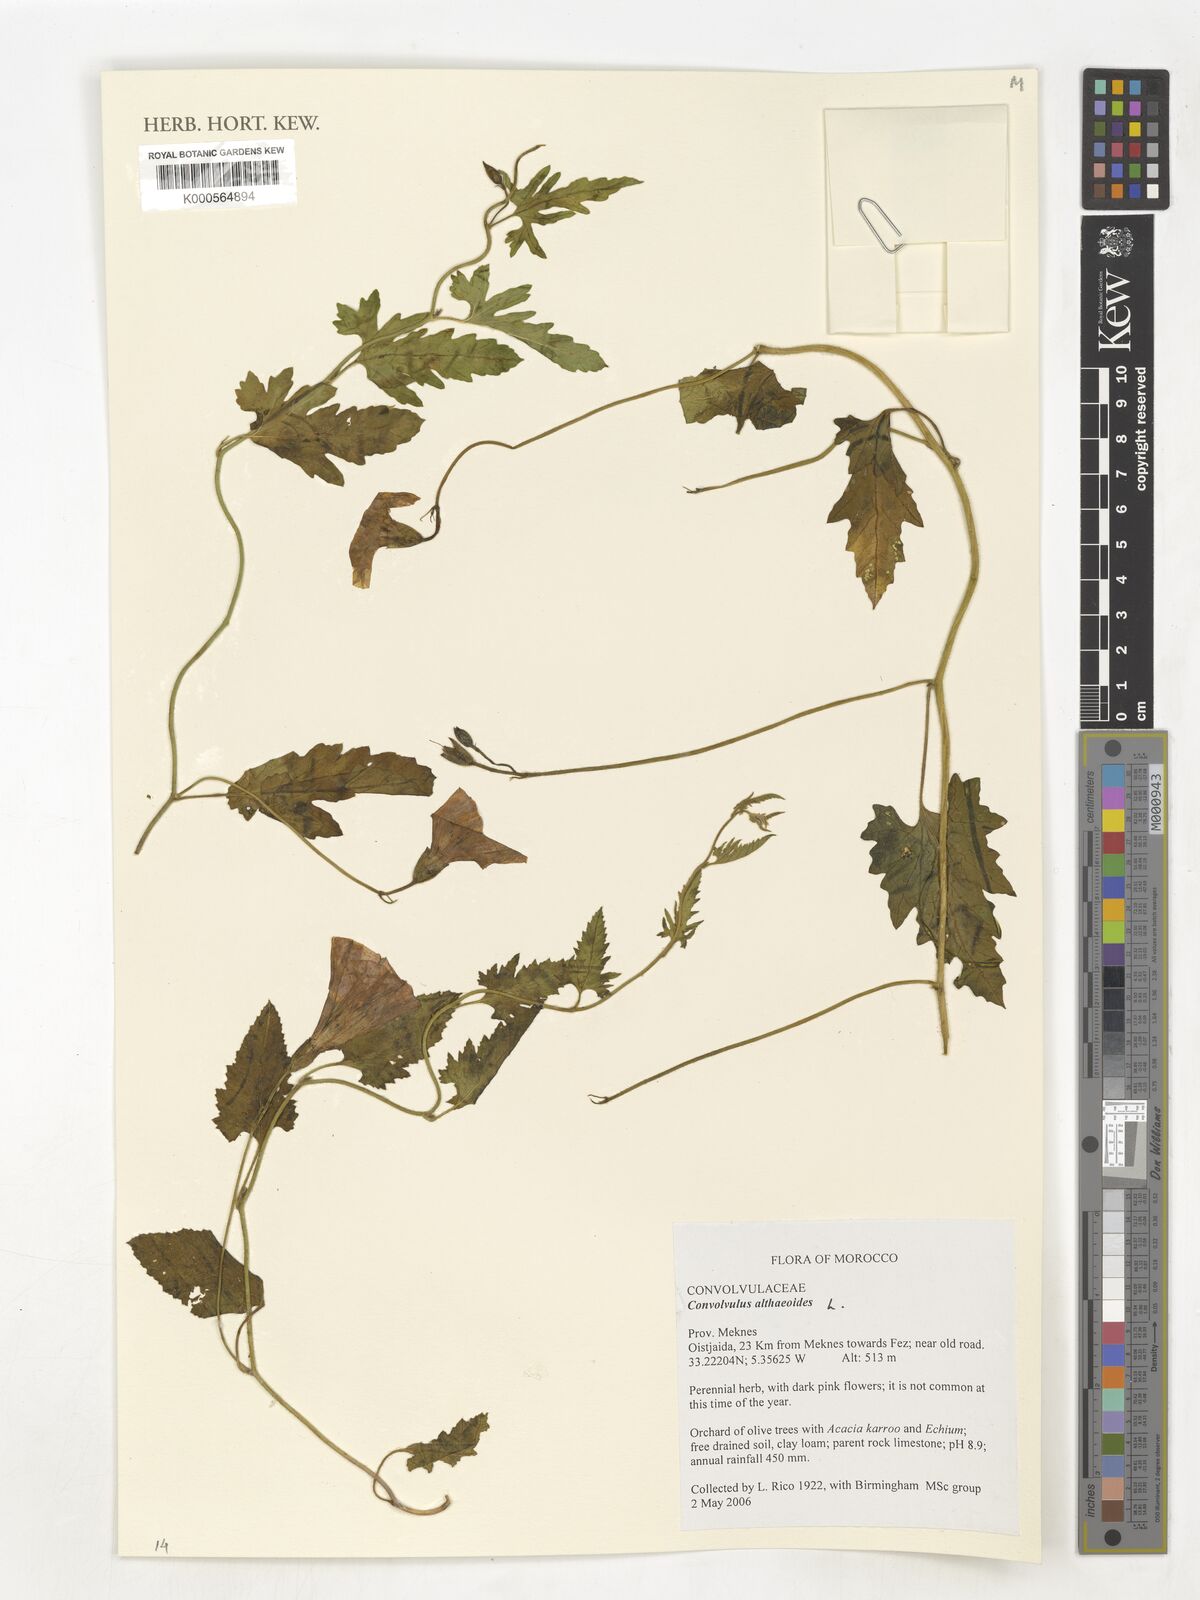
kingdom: Plantae
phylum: Tracheophyta
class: Magnoliopsida
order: Solanales
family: Convolvulaceae
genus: Convolvulus
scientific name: Convolvulus althaeoides
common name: Mallow bindweed
